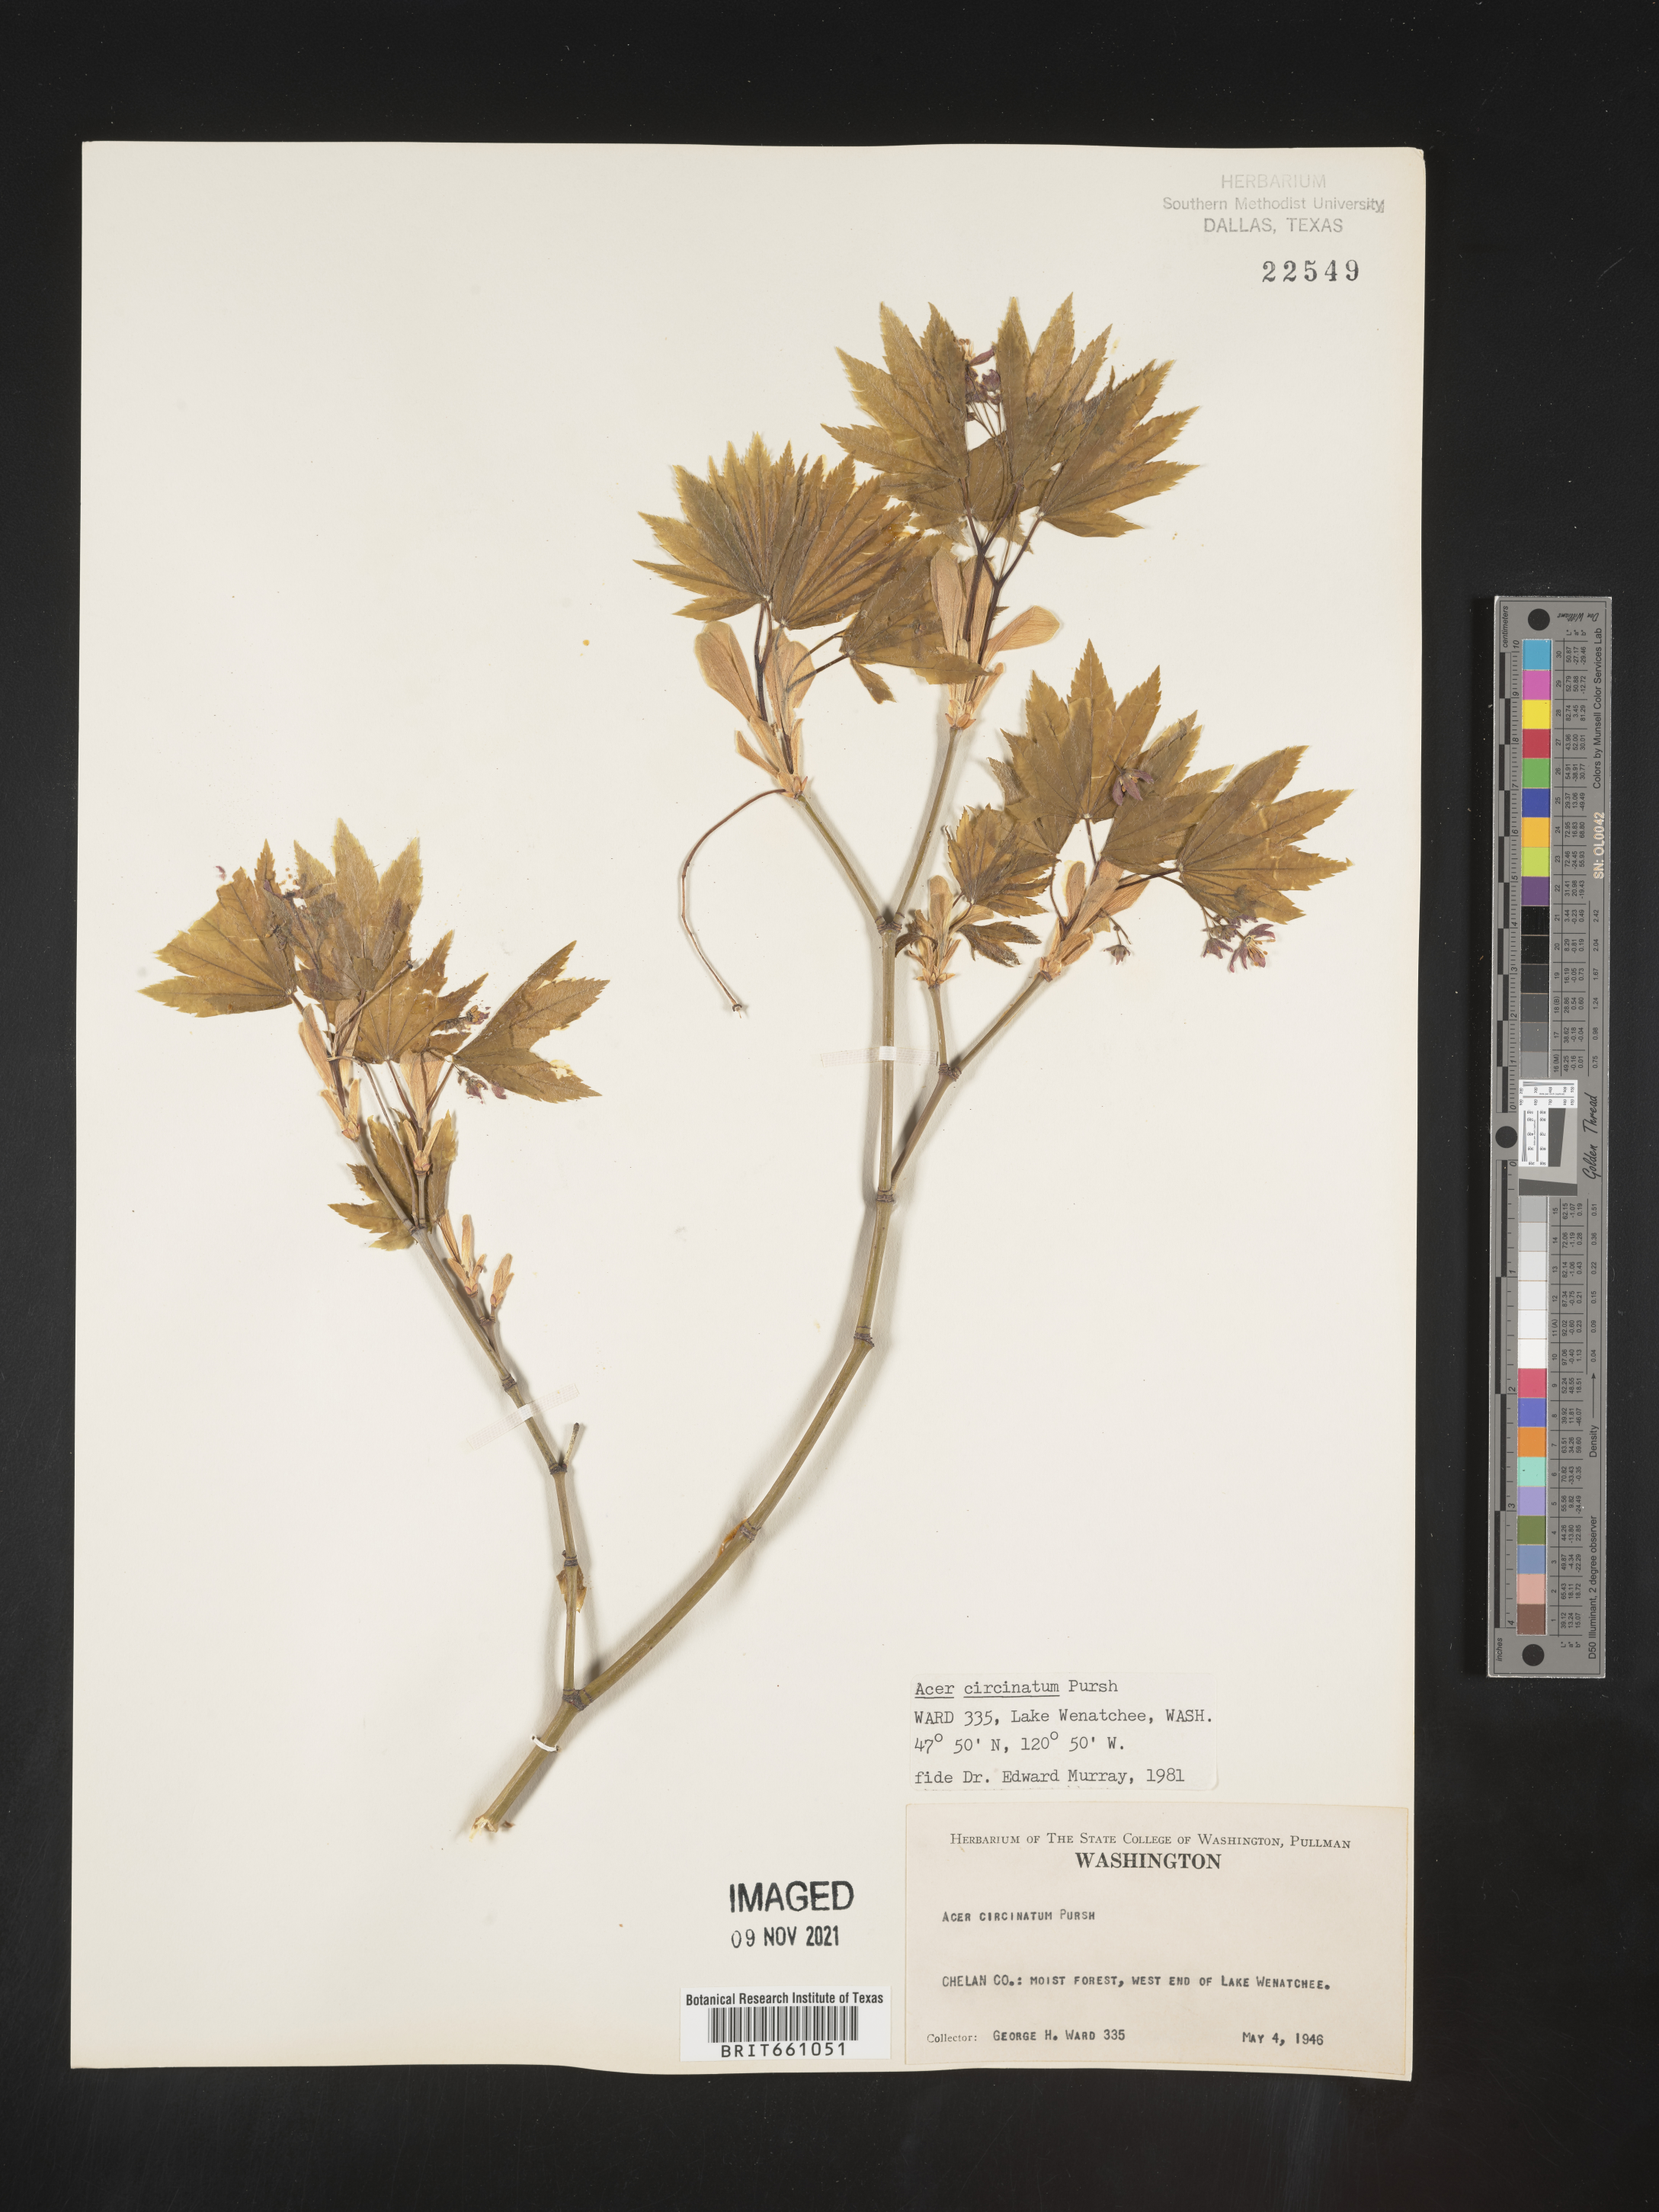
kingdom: Plantae
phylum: Tracheophyta
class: Magnoliopsida
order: Sapindales
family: Sapindaceae
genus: Acer
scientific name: Acer circinatum
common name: Vine maple
